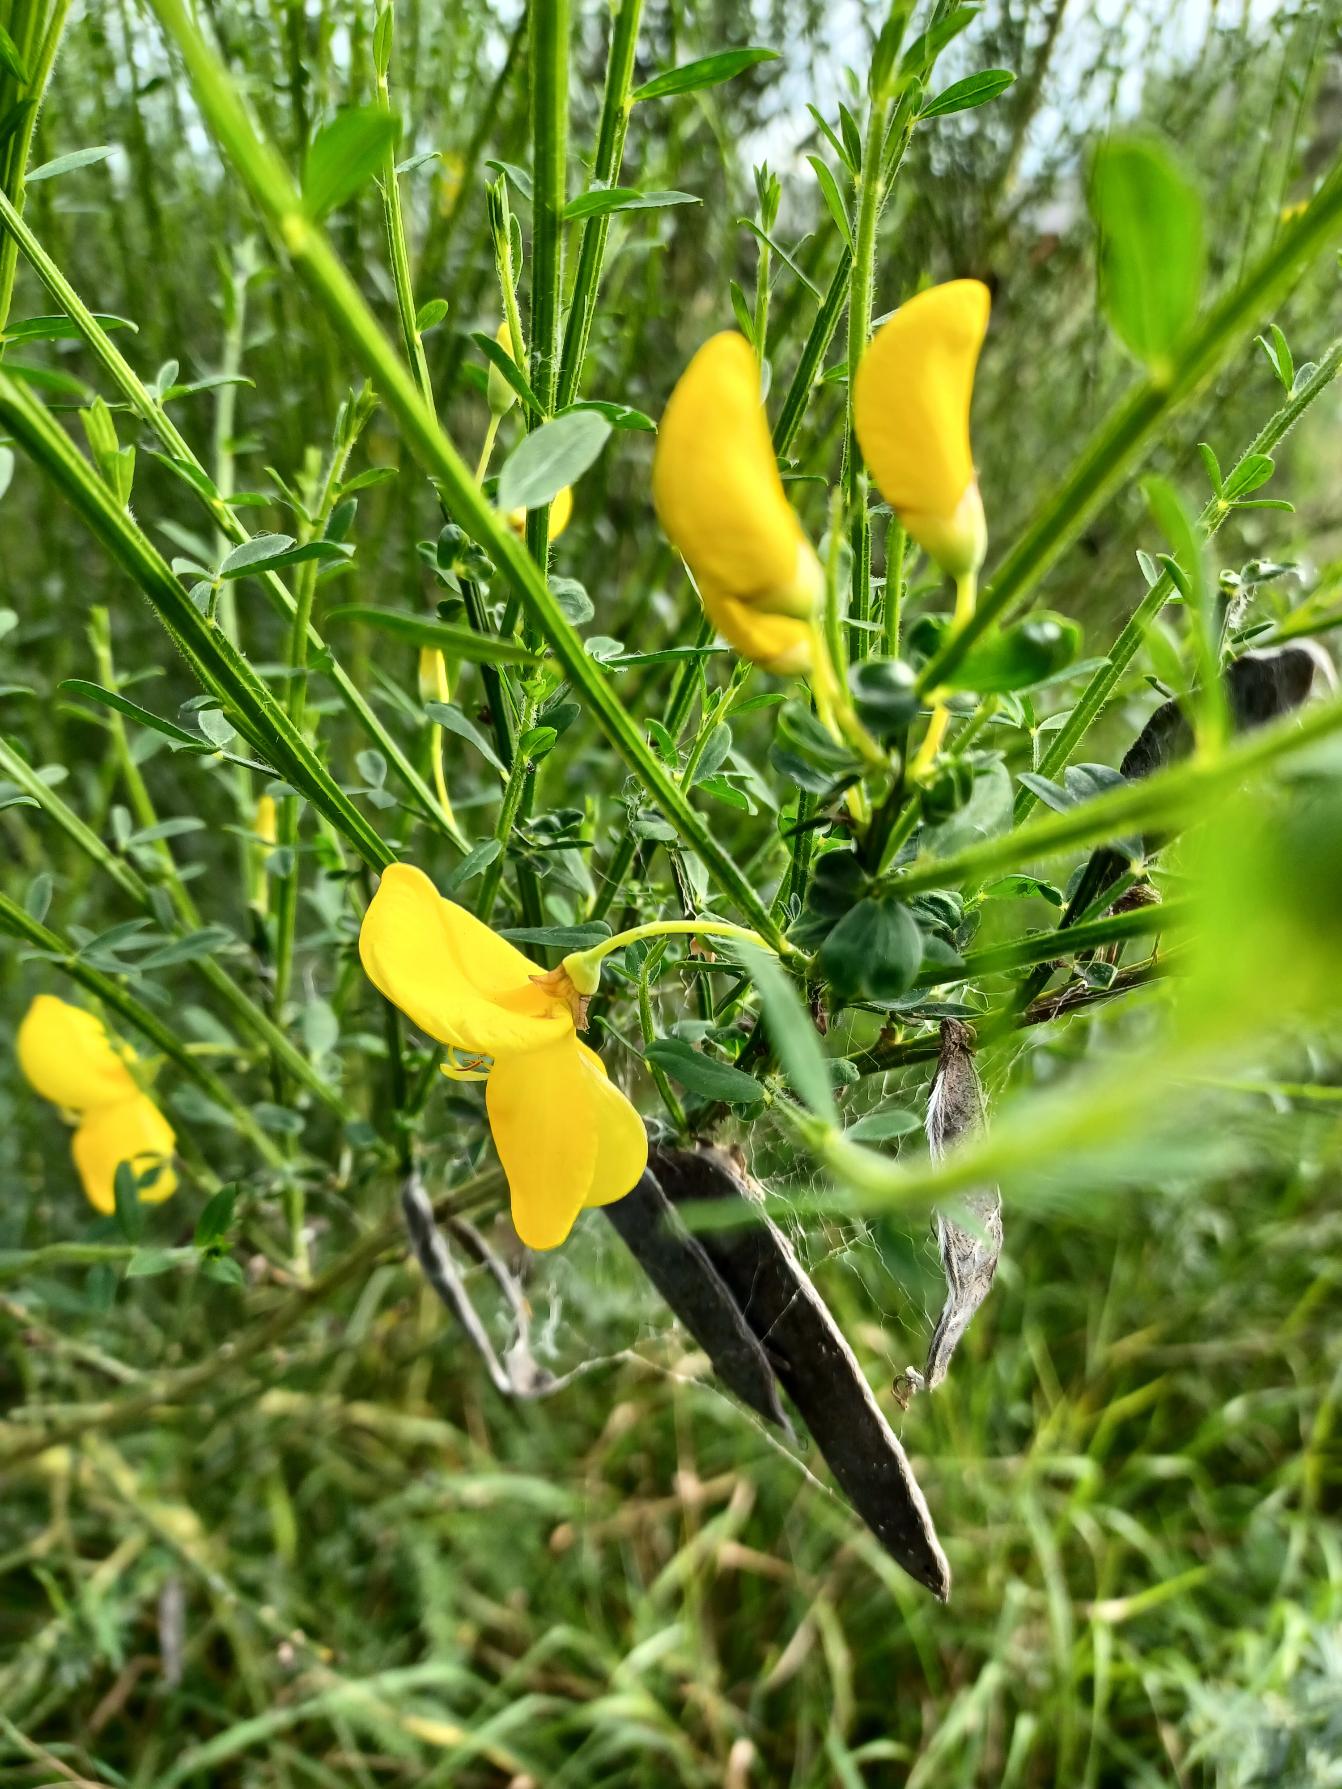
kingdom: Plantae
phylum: Tracheophyta
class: Magnoliopsida
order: Fabales
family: Fabaceae
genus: Cytisus
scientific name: Cytisus scoparius
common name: Almindelig gyvel
